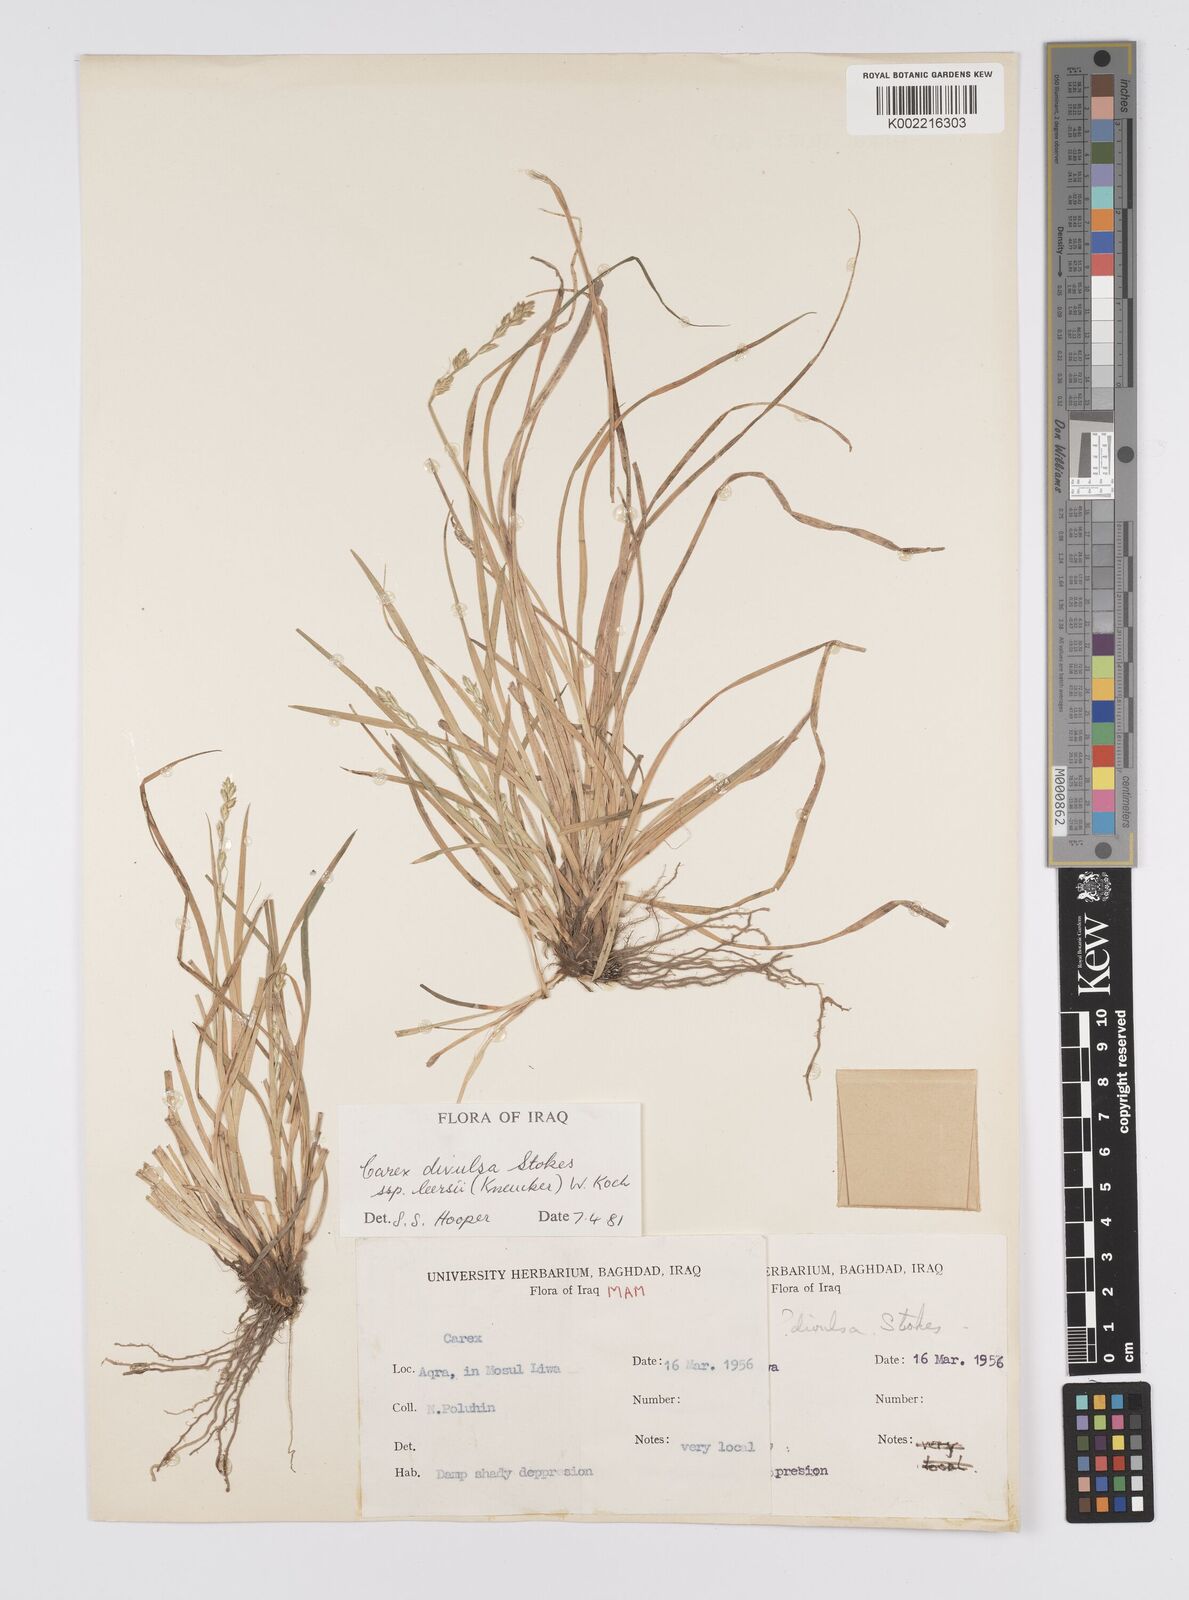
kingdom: Plantae
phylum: Tracheophyta
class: Liliopsida
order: Poales
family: Cyperaceae
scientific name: Cyperaceae
